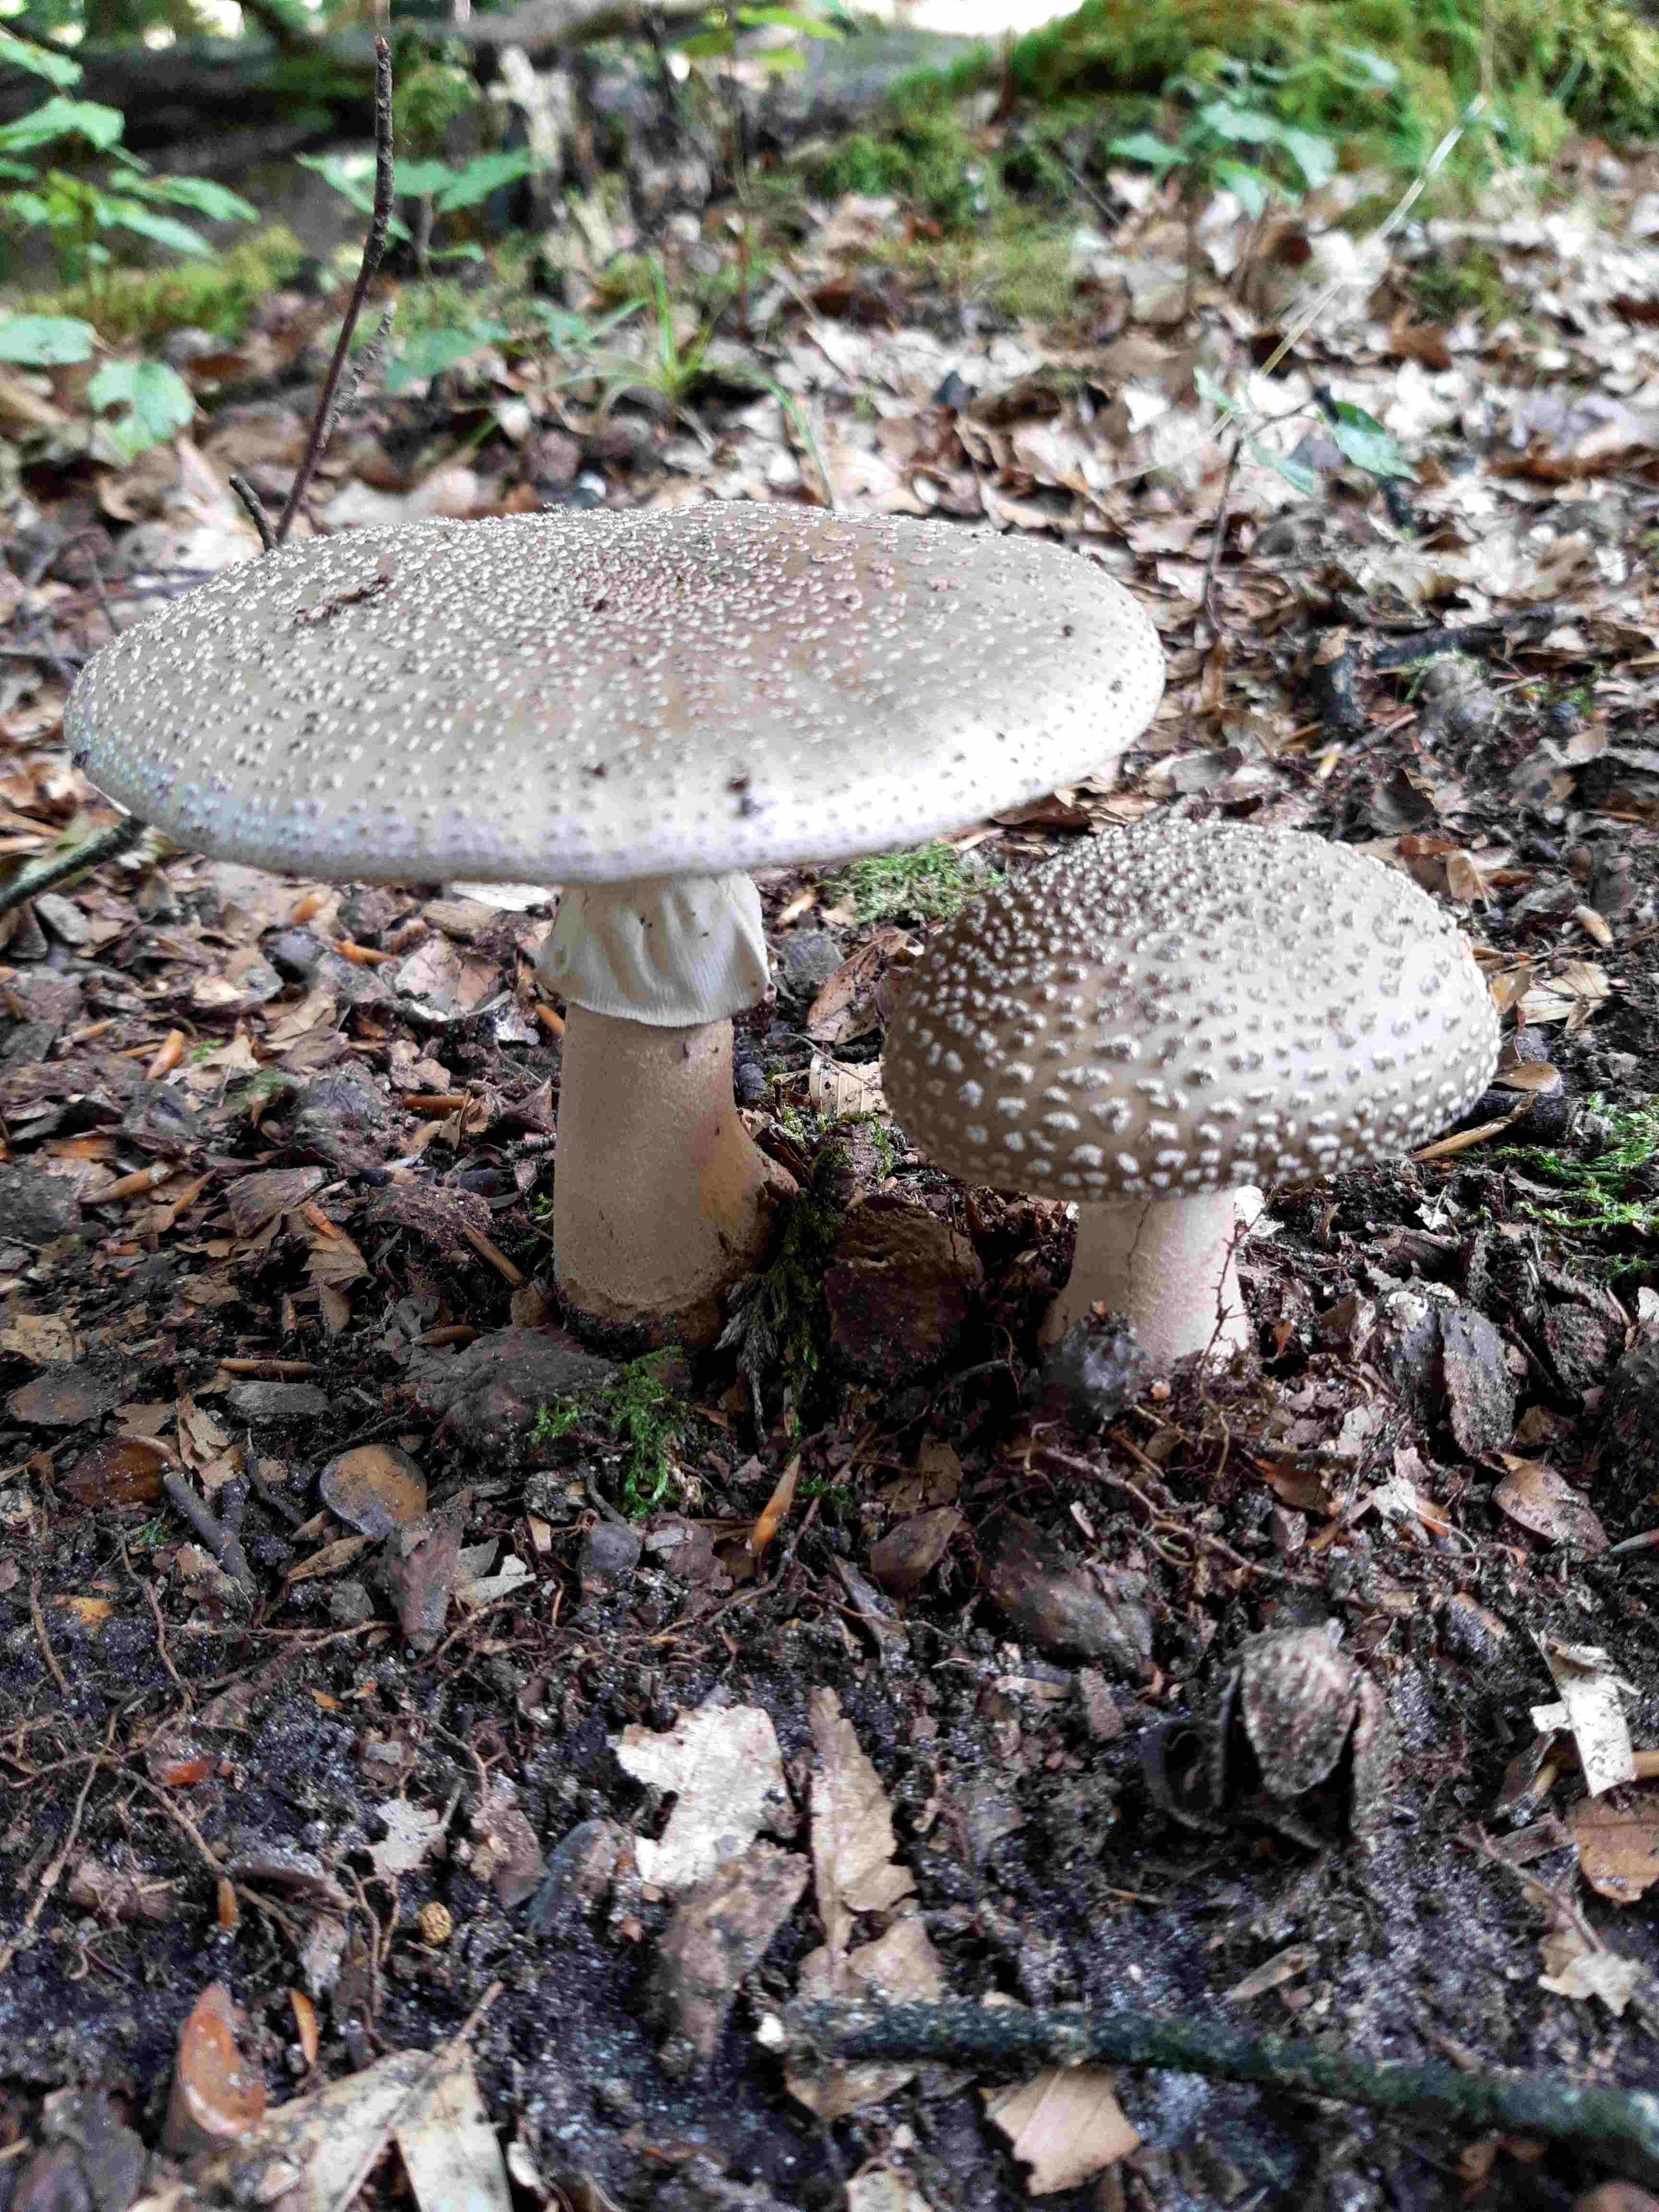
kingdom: Fungi
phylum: Basidiomycota
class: Agaricomycetes
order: Agaricales
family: Amanitaceae
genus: Amanita
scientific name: Amanita
